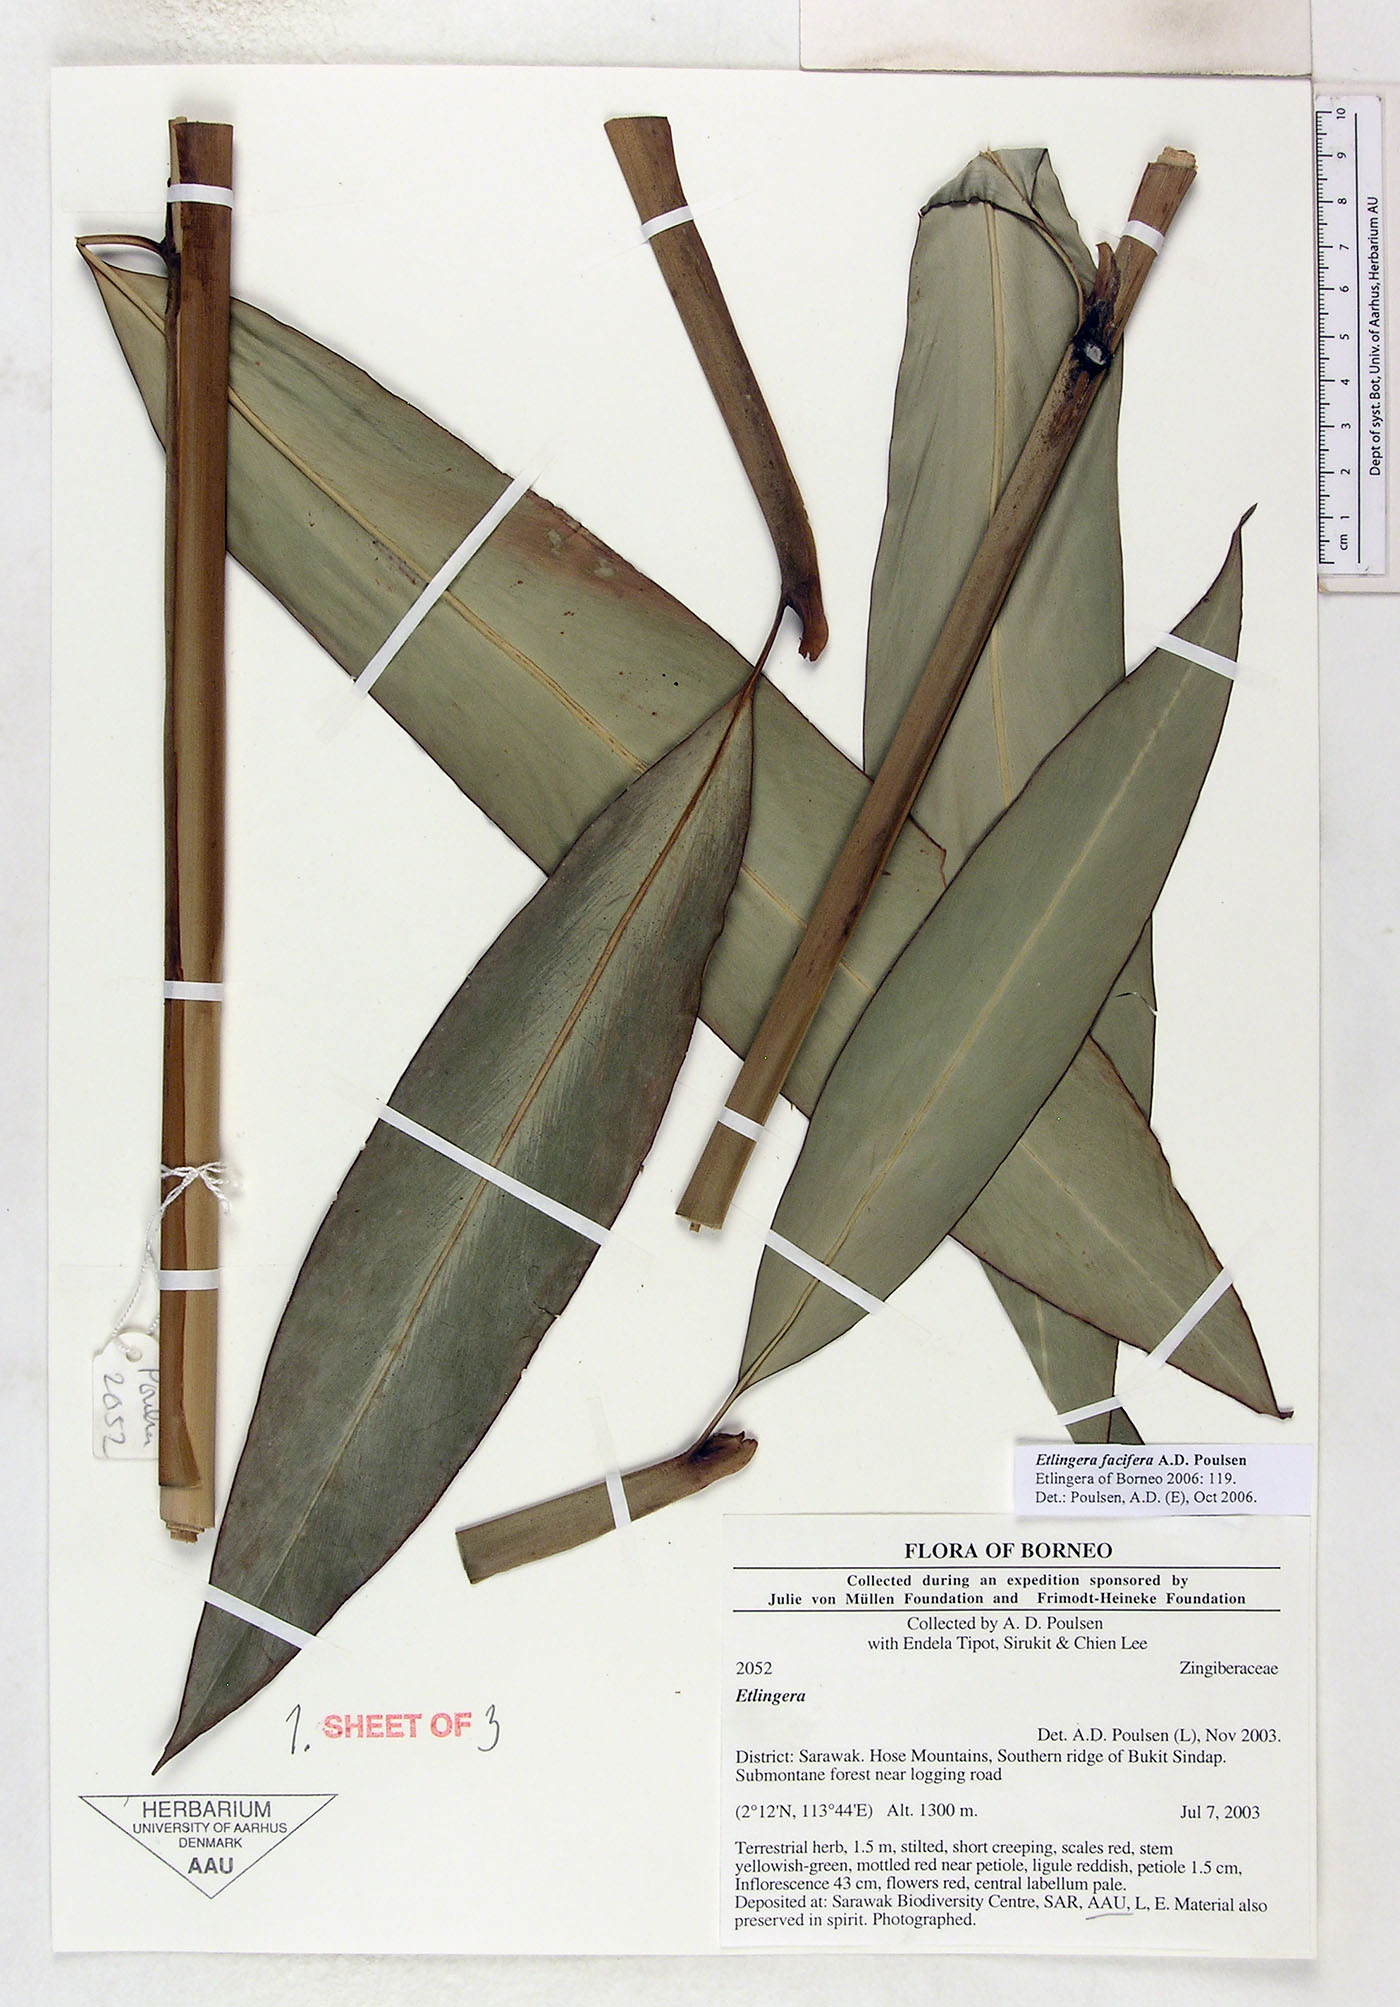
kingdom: Plantae
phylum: Tracheophyta
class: Liliopsida
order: Zingiberales
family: Zingiberaceae
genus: Etlingera
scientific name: Etlingera facifera
